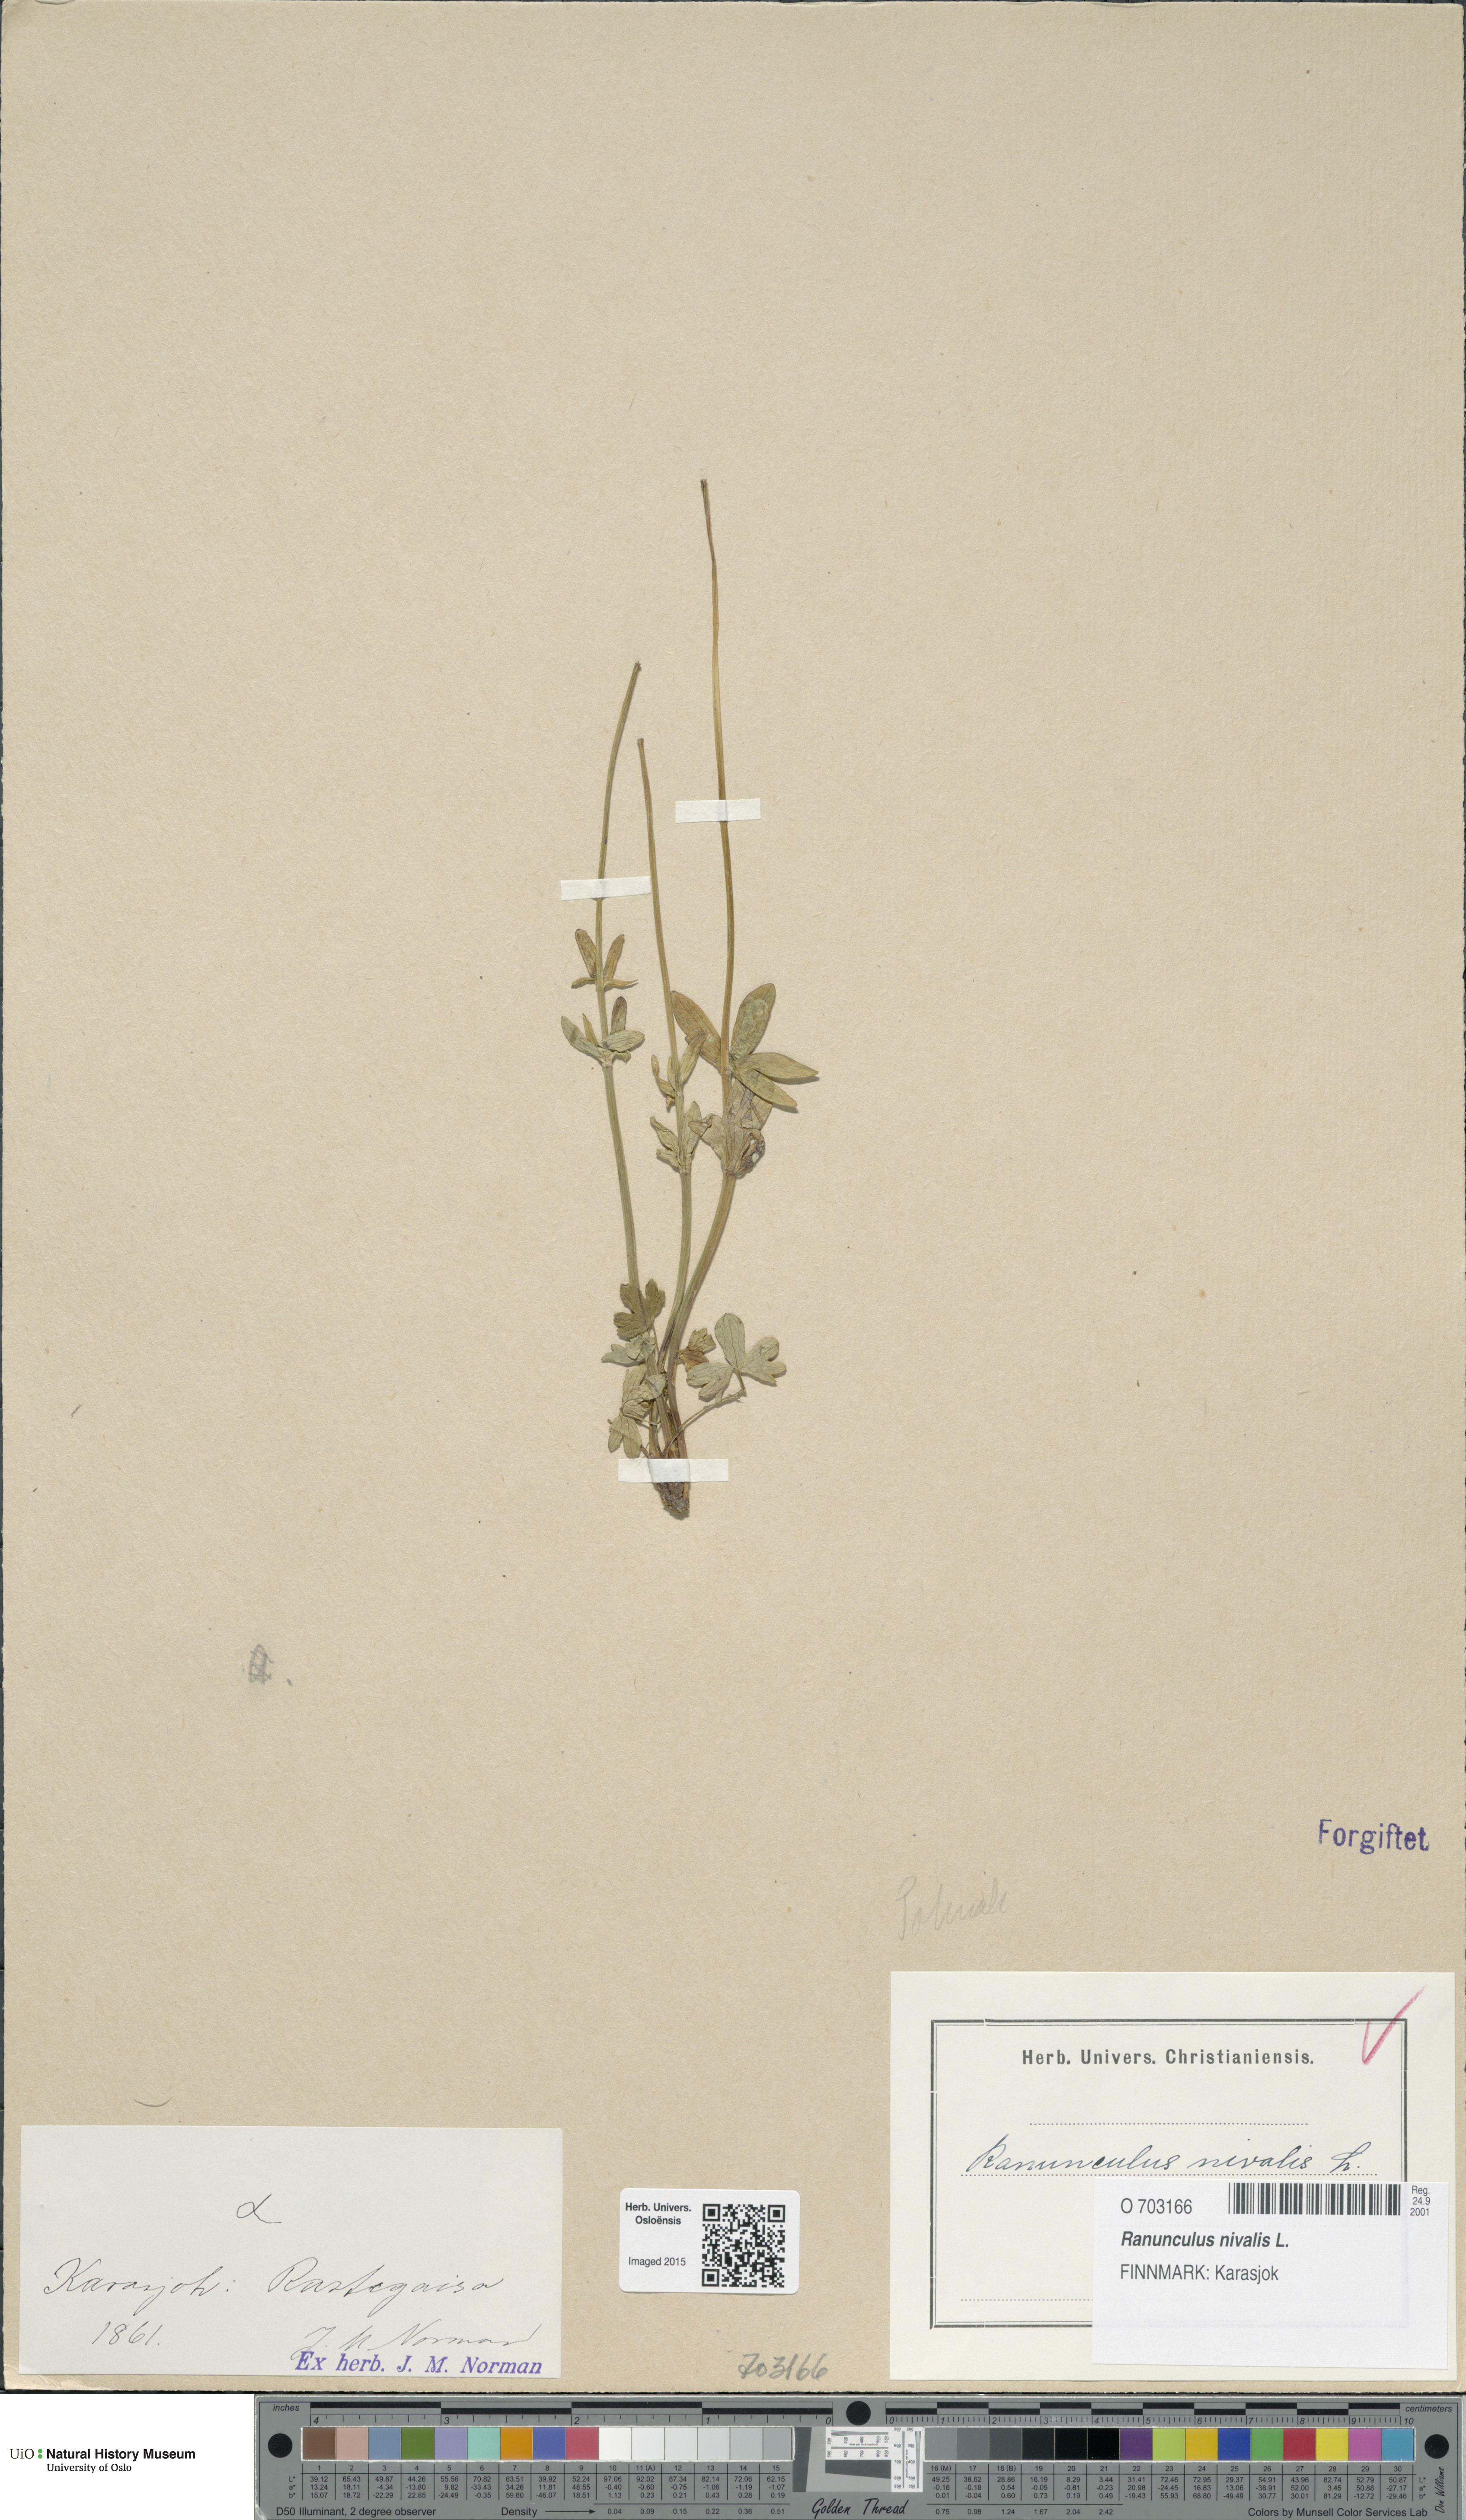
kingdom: Plantae
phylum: Tracheophyta
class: Magnoliopsida
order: Ranunculales
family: Ranunculaceae
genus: Ranunculus
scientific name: Ranunculus nivalis
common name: Snow buttercup
